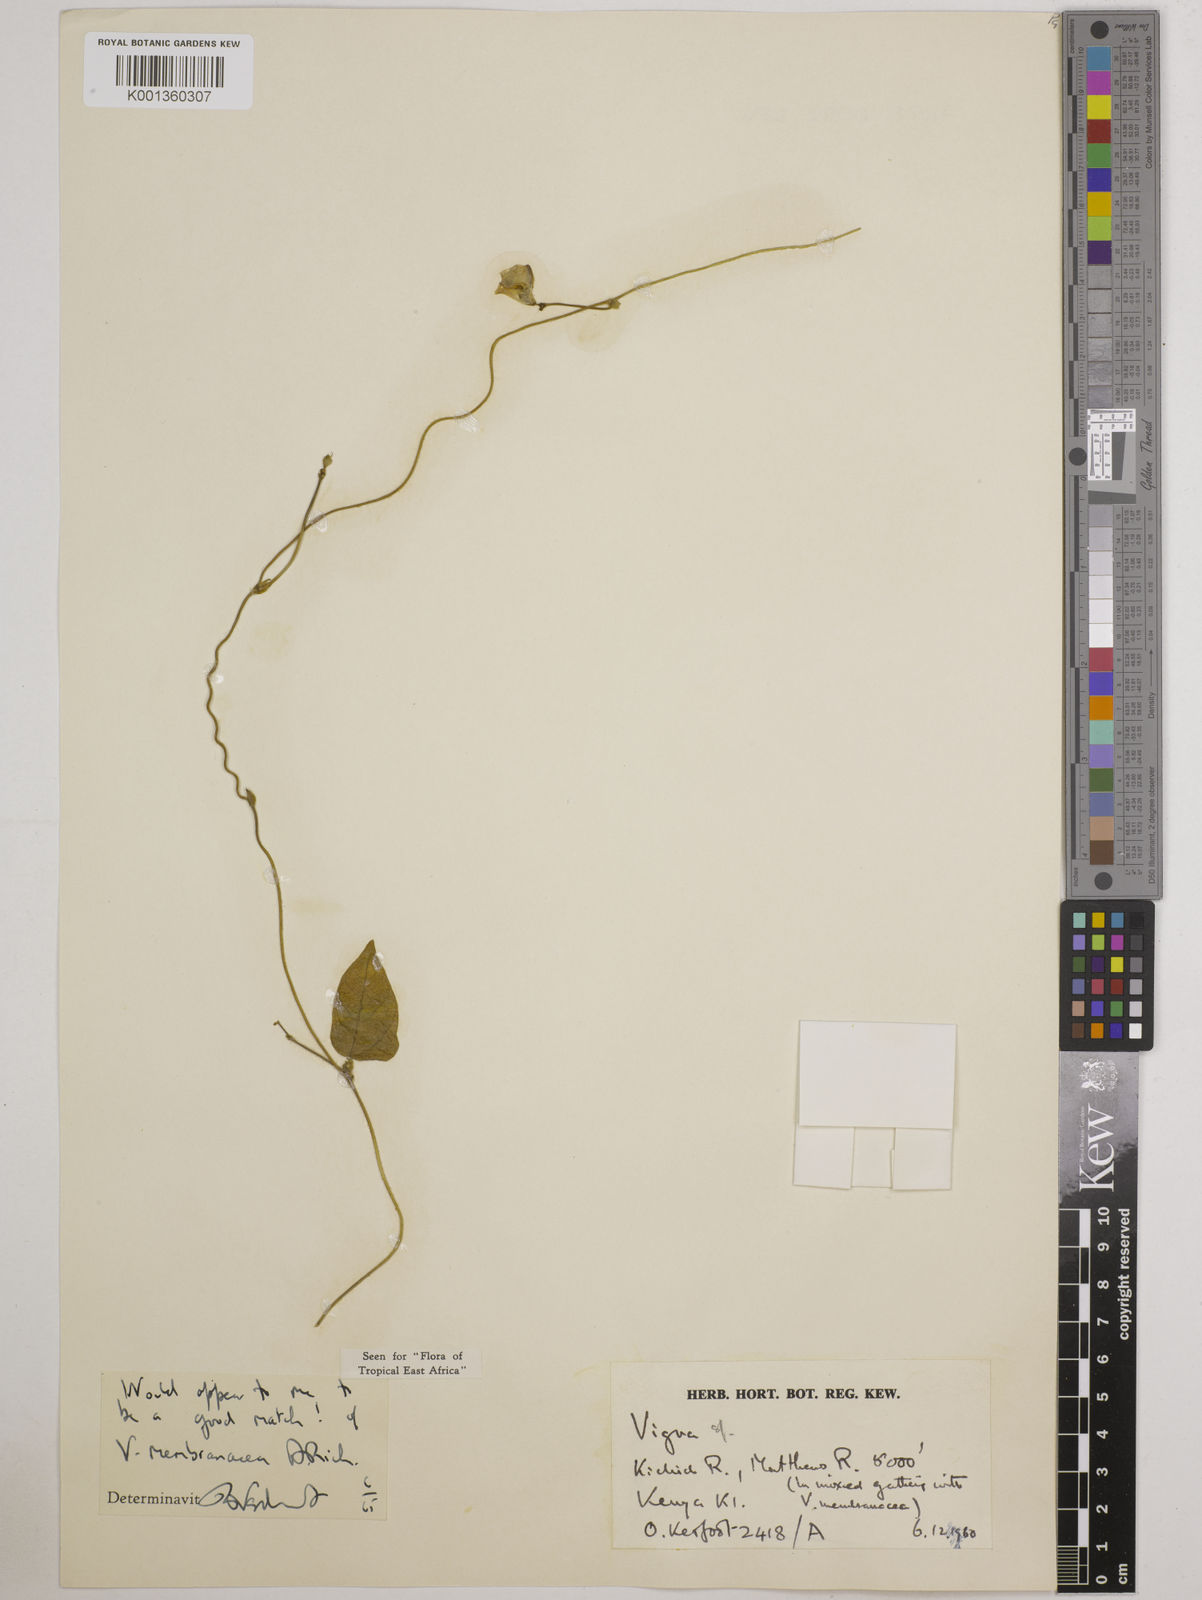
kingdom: Plantae
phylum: Tracheophyta
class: Magnoliopsida
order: Fabales
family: Fabaceae
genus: Vigna
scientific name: Vigna membranacea
